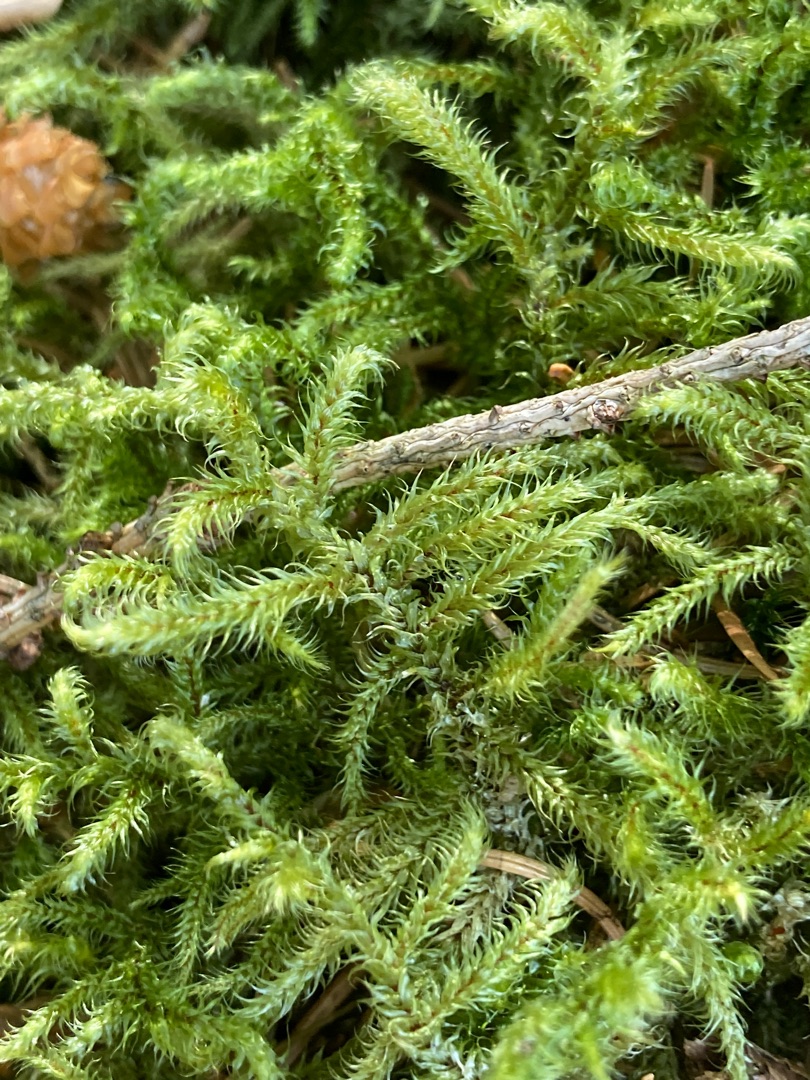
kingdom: Plantae
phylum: Bryophyta
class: Bryopsida
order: Hypnales
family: Hylocomiaceae
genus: Rhytidiadelphus
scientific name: Rhytidiadelphus loreus
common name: Ulvefod-kransemos
